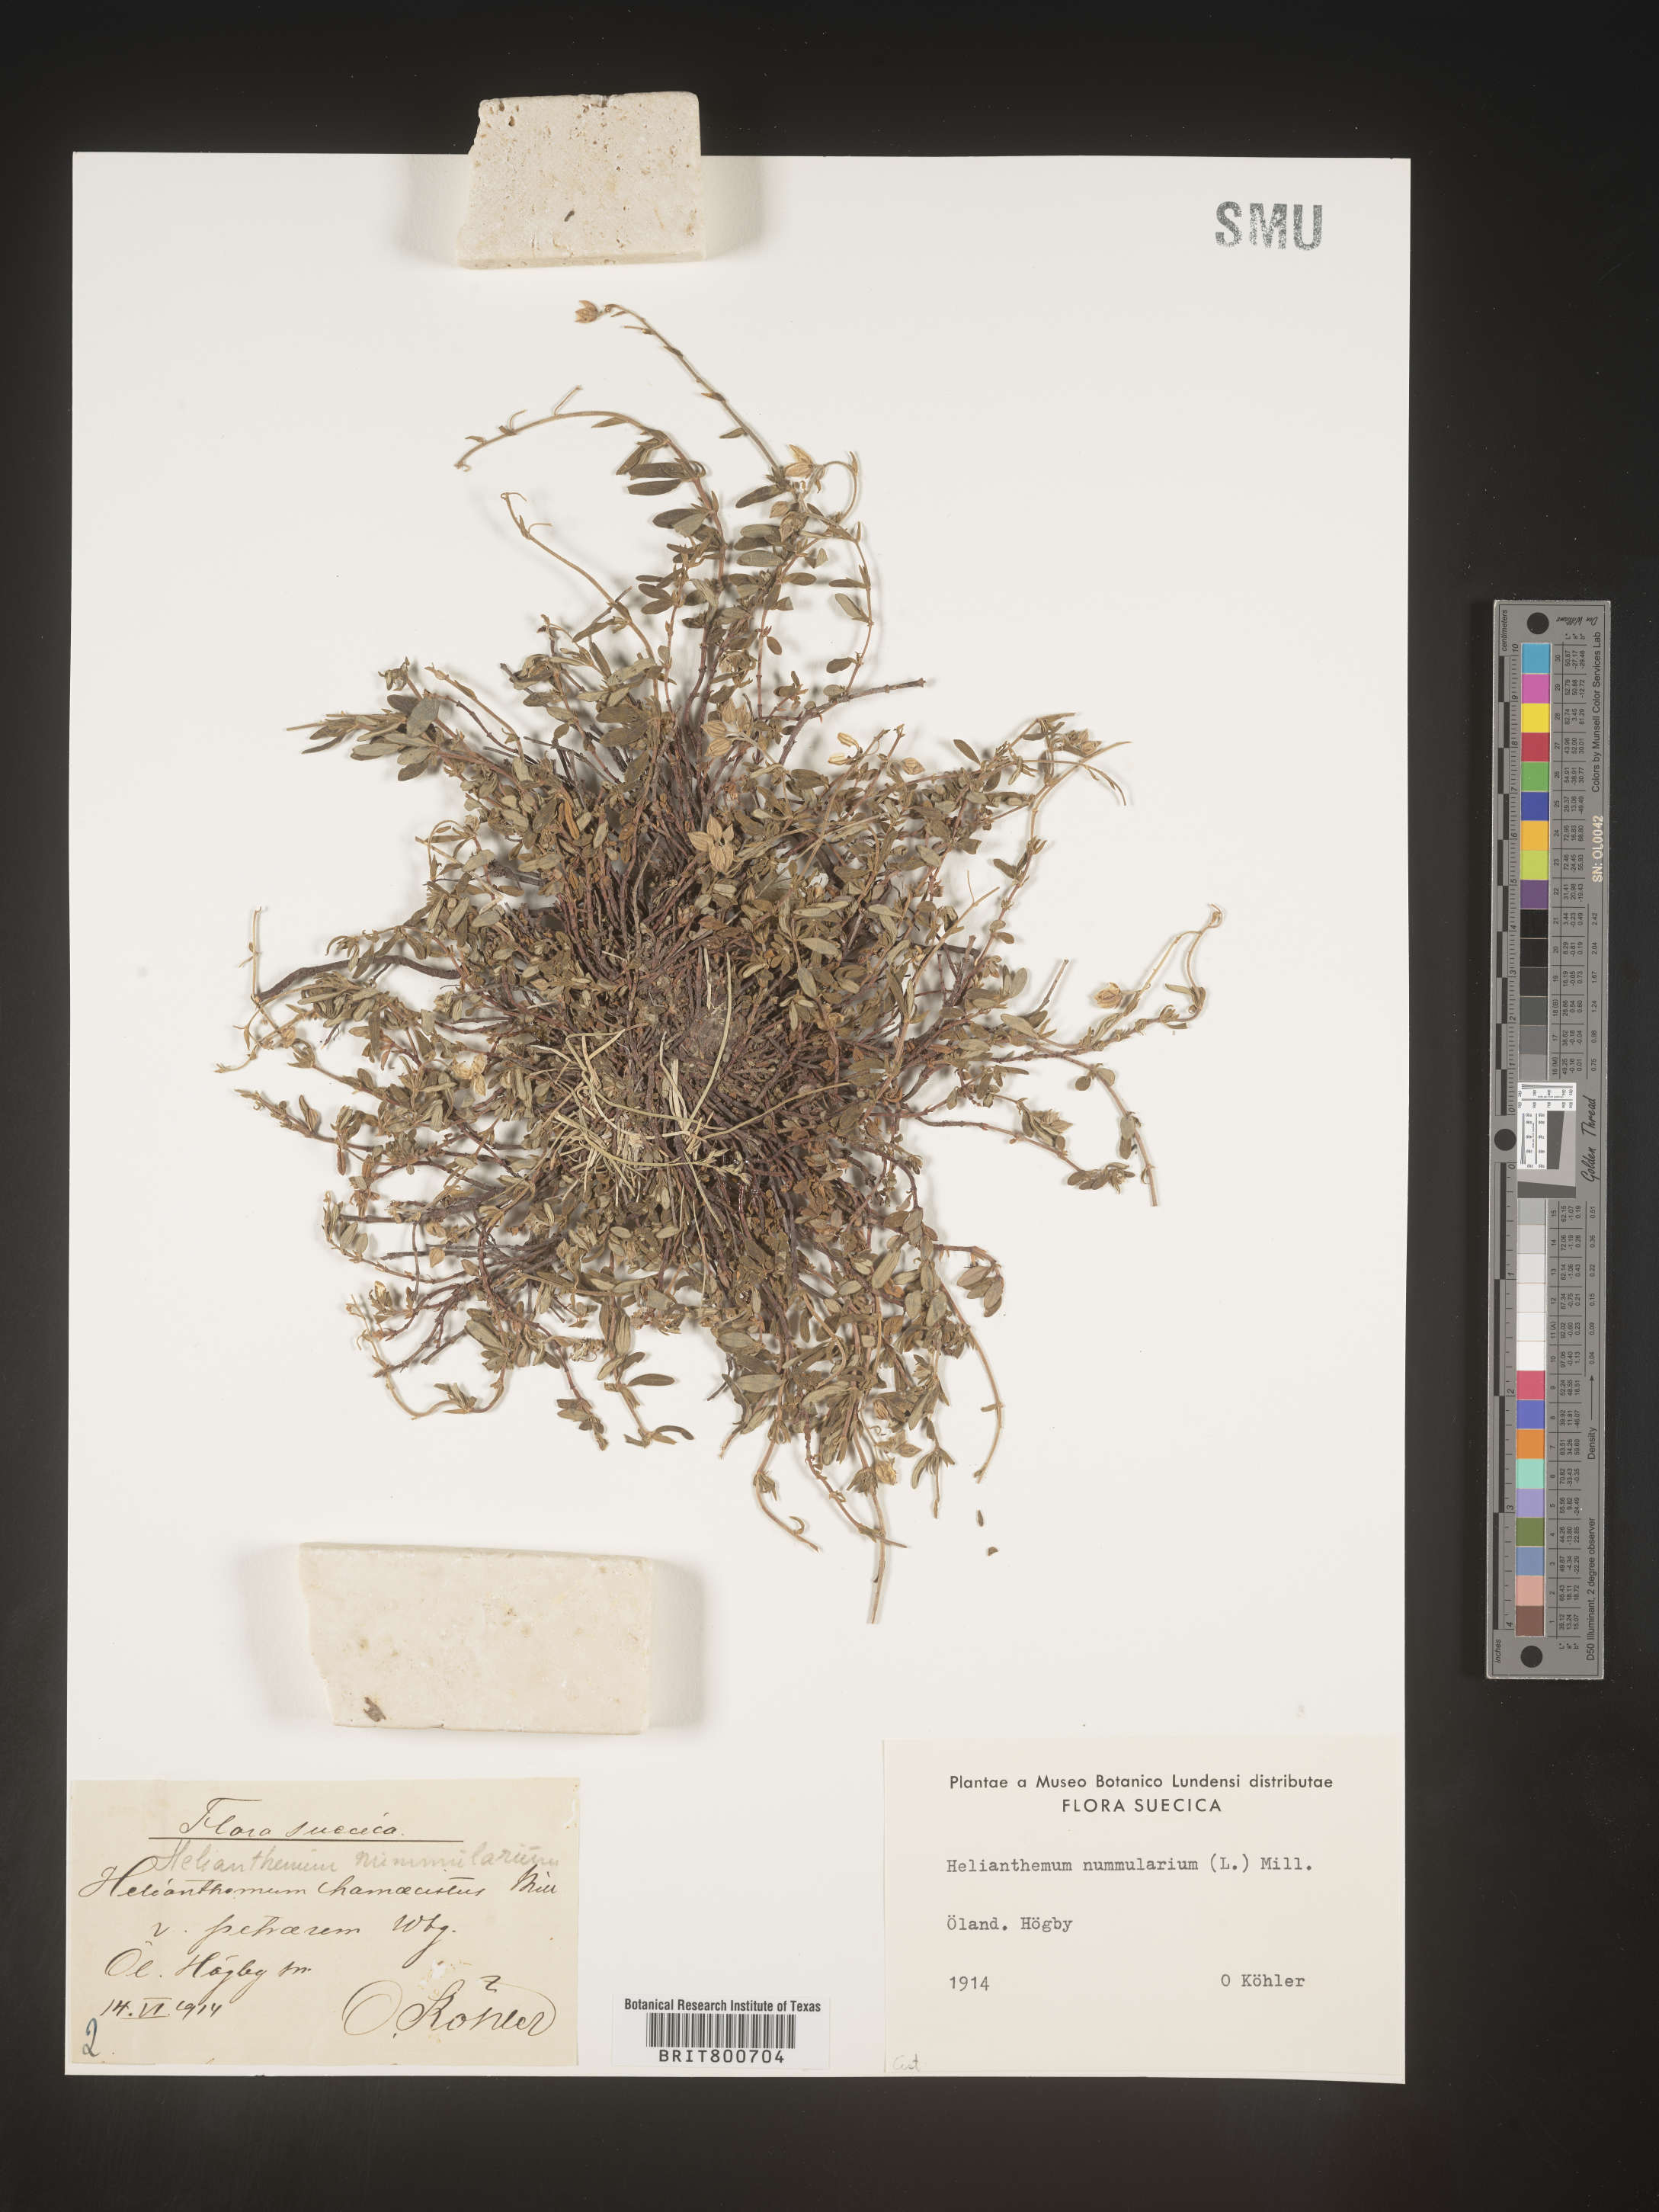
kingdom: Plantae
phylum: Tracheophyta
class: Magnoliopsida
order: Malvales
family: Cistaceae
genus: Helianthemum
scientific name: Helianthemum
